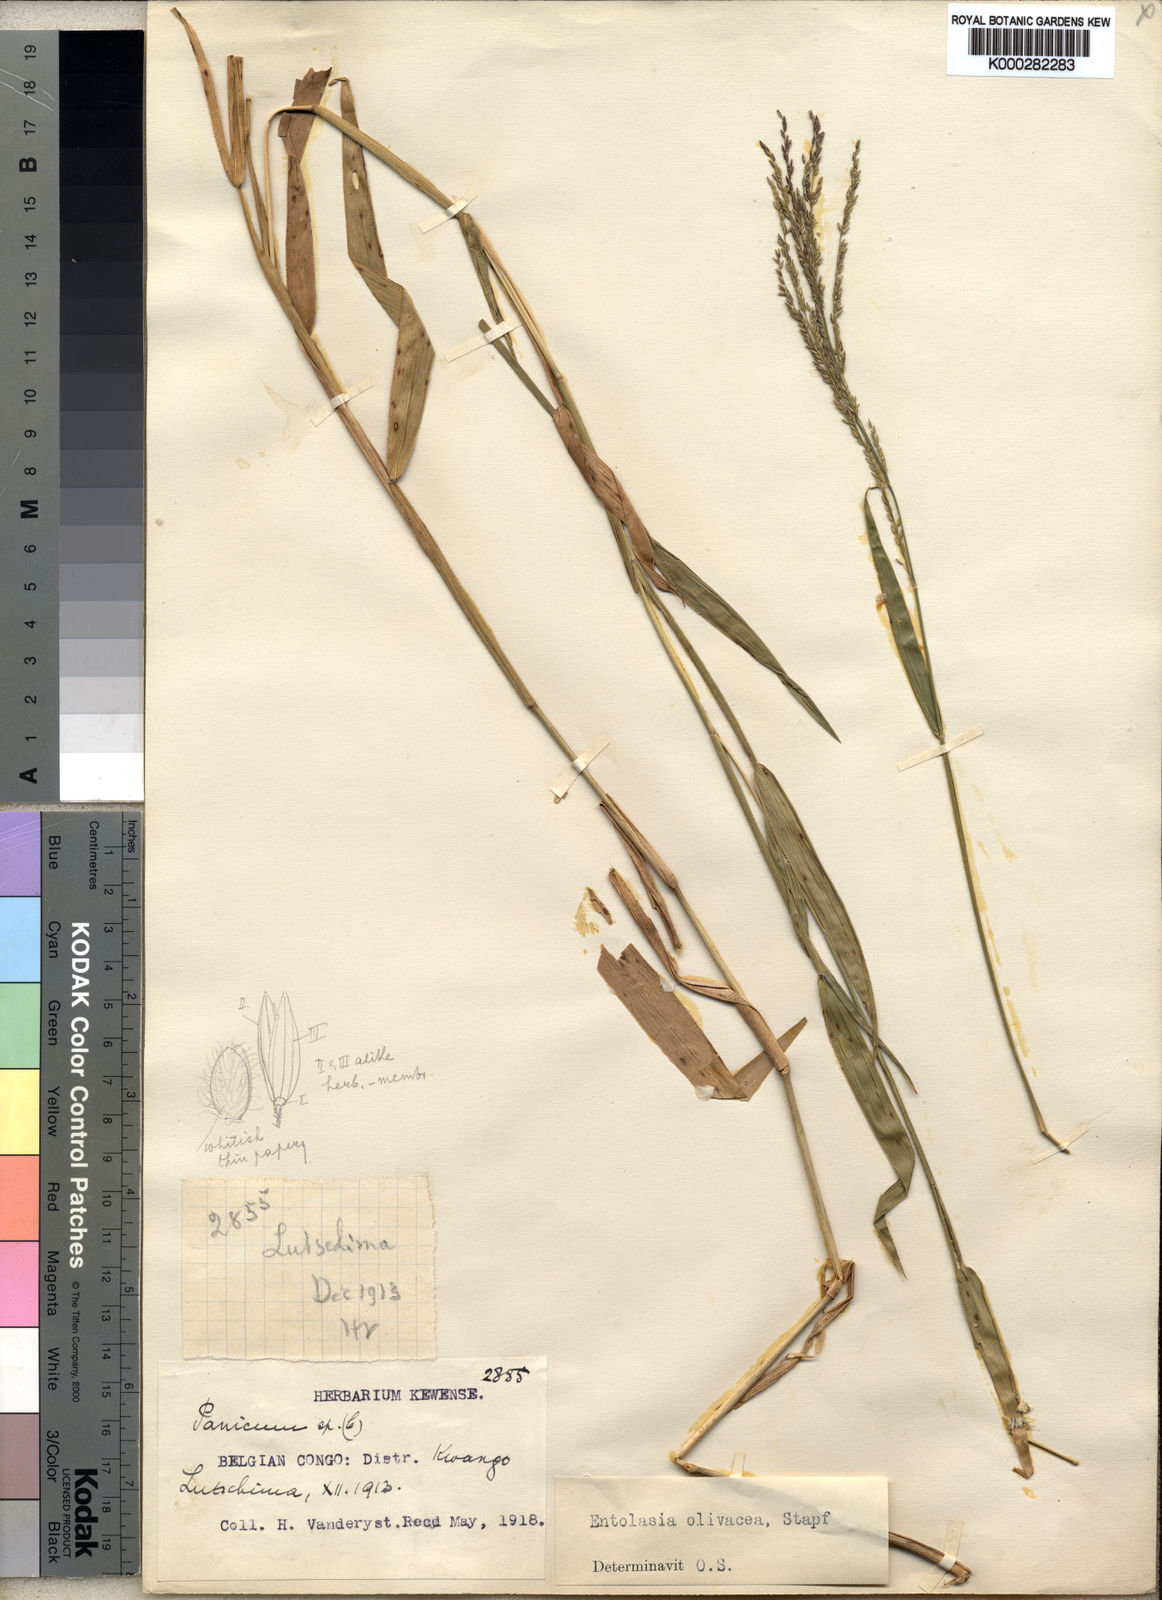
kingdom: Plantae
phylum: Tracheophyta
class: Liliopsida
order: Poales
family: Poaceae
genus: Entolasia
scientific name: Entolasia olivacea
